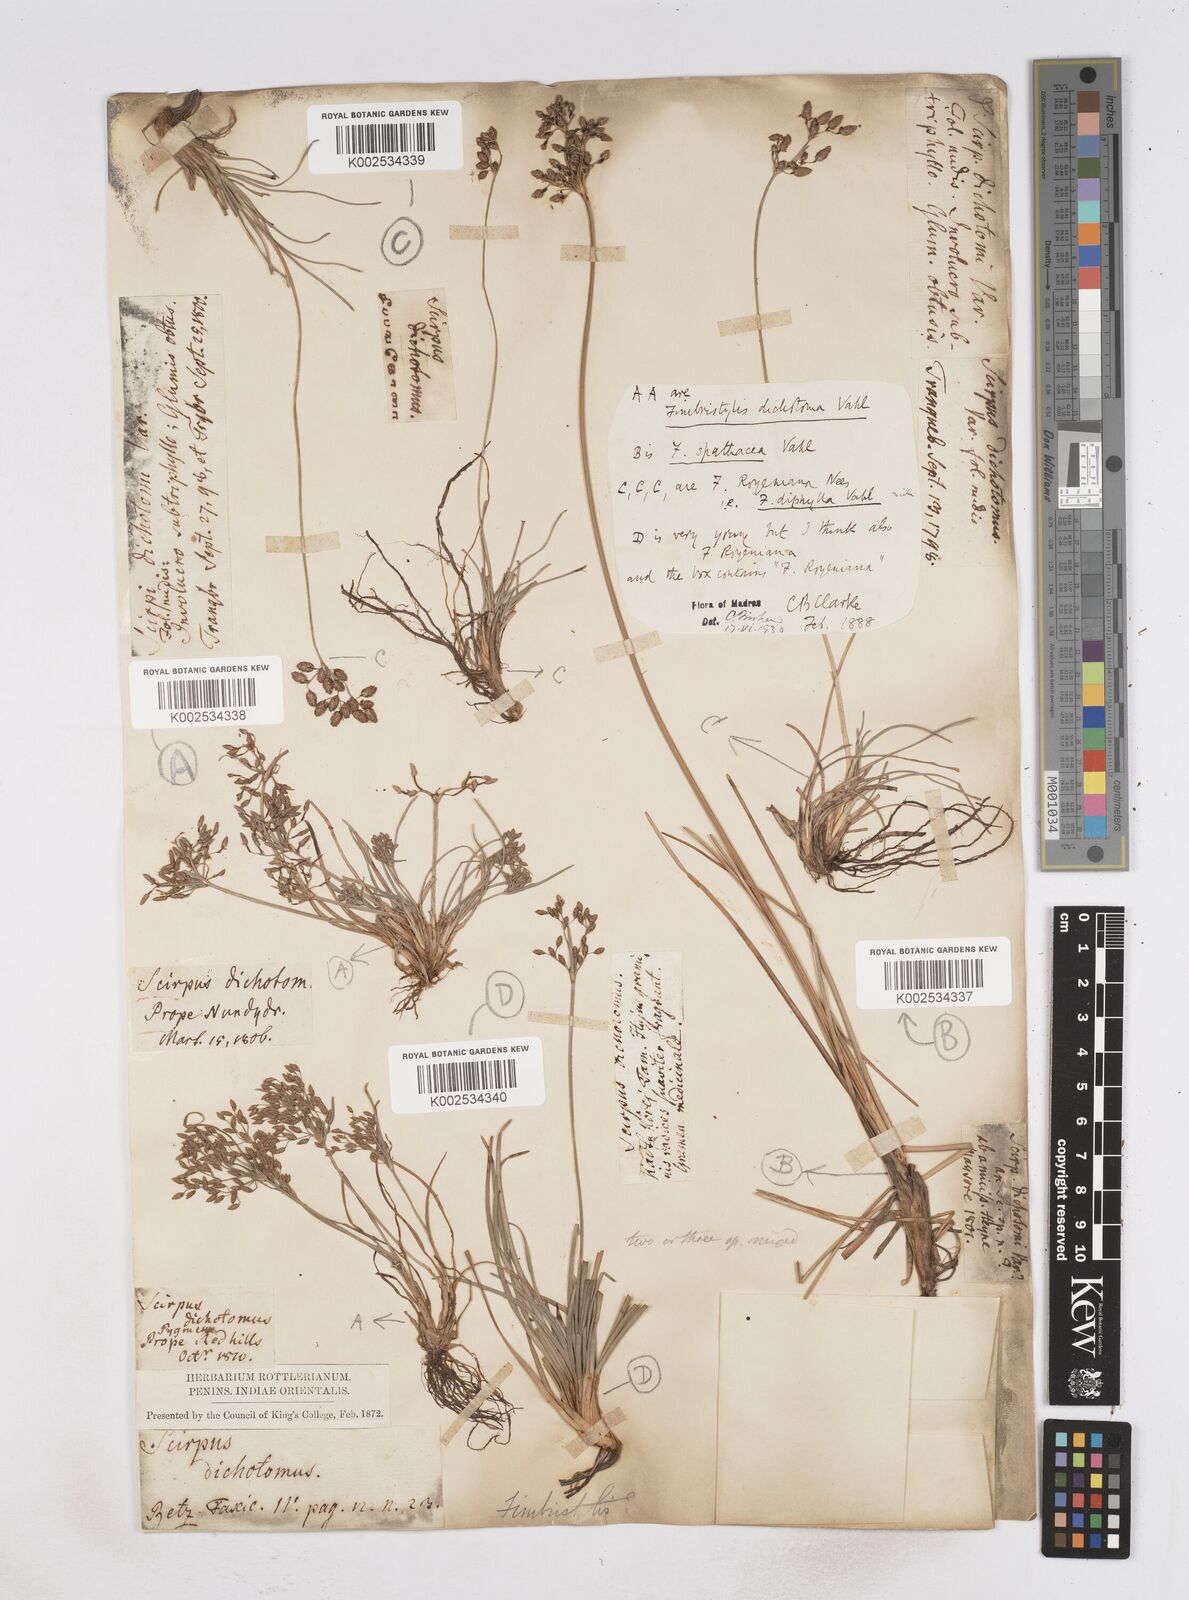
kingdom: Plantae
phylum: Tracheophyta
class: Liliopsida
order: Poales
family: Cyperaceae
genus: Fimbristylis
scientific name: Fimbristylis cymosa
